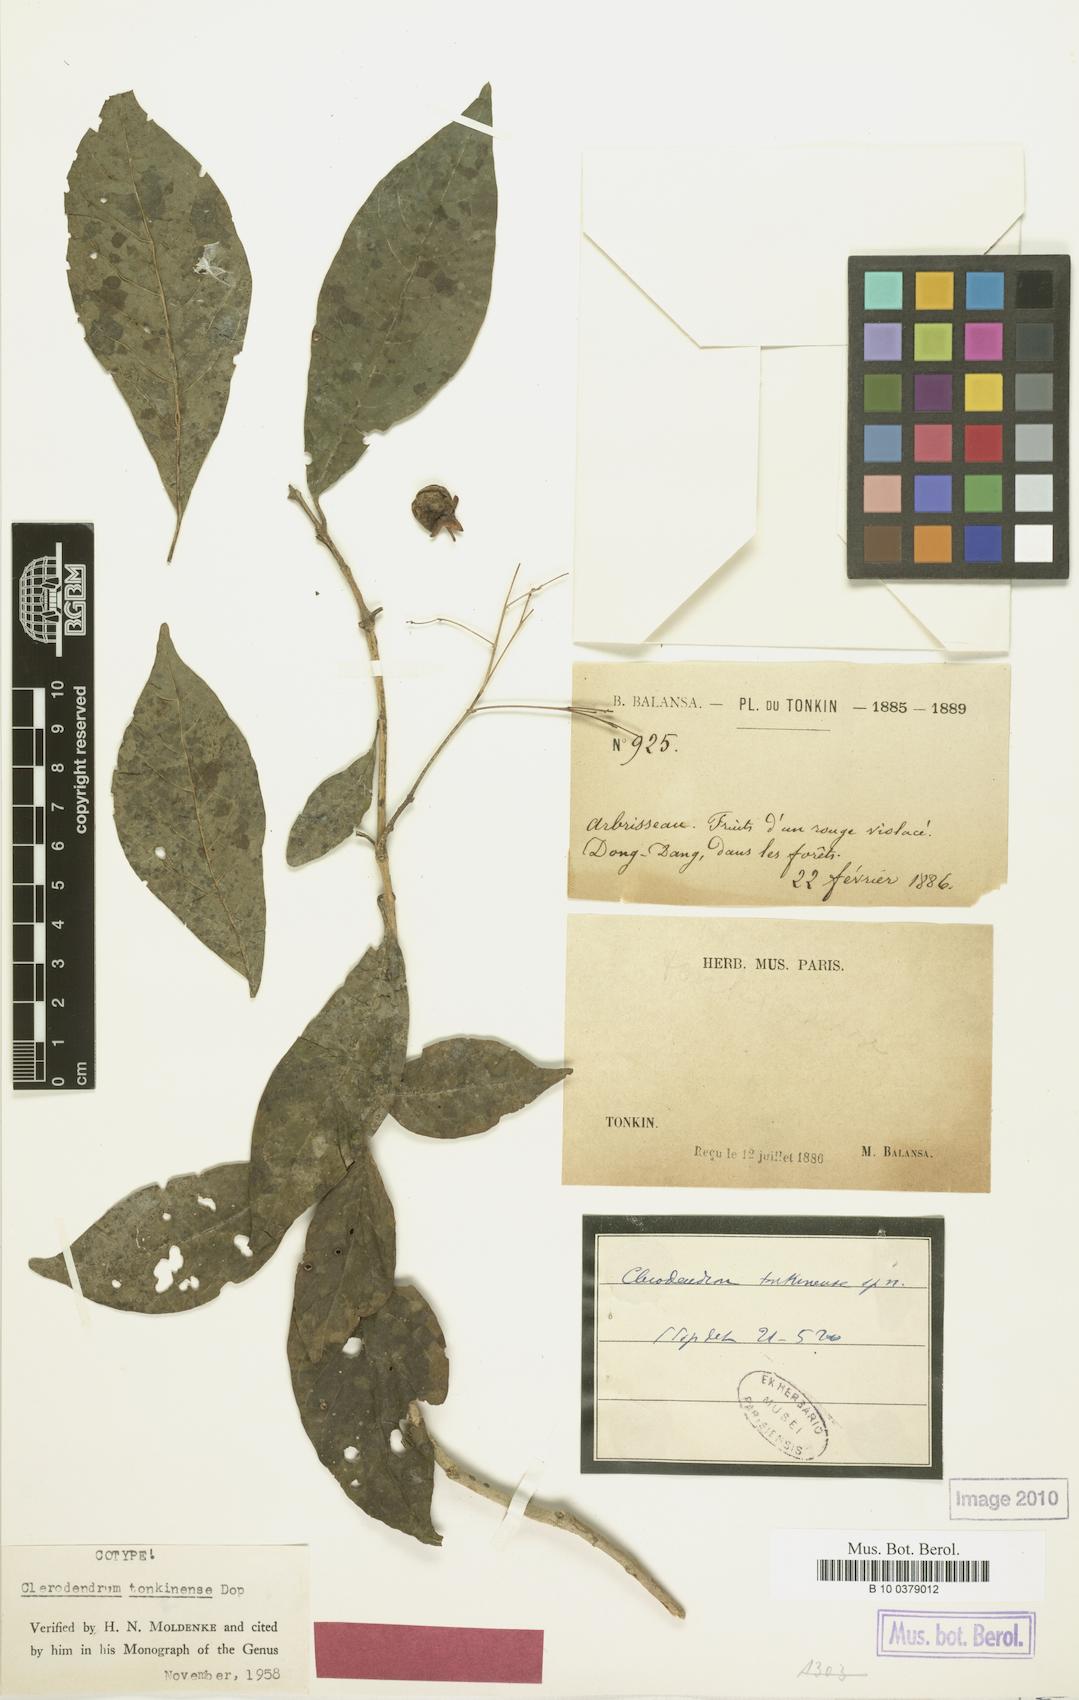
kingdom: Plantae
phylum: Tracheophyta
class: Magnoliopsida
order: Lamiales
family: Lamiaceae
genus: Clerodendrum
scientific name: Clerodendrum tonkinense
